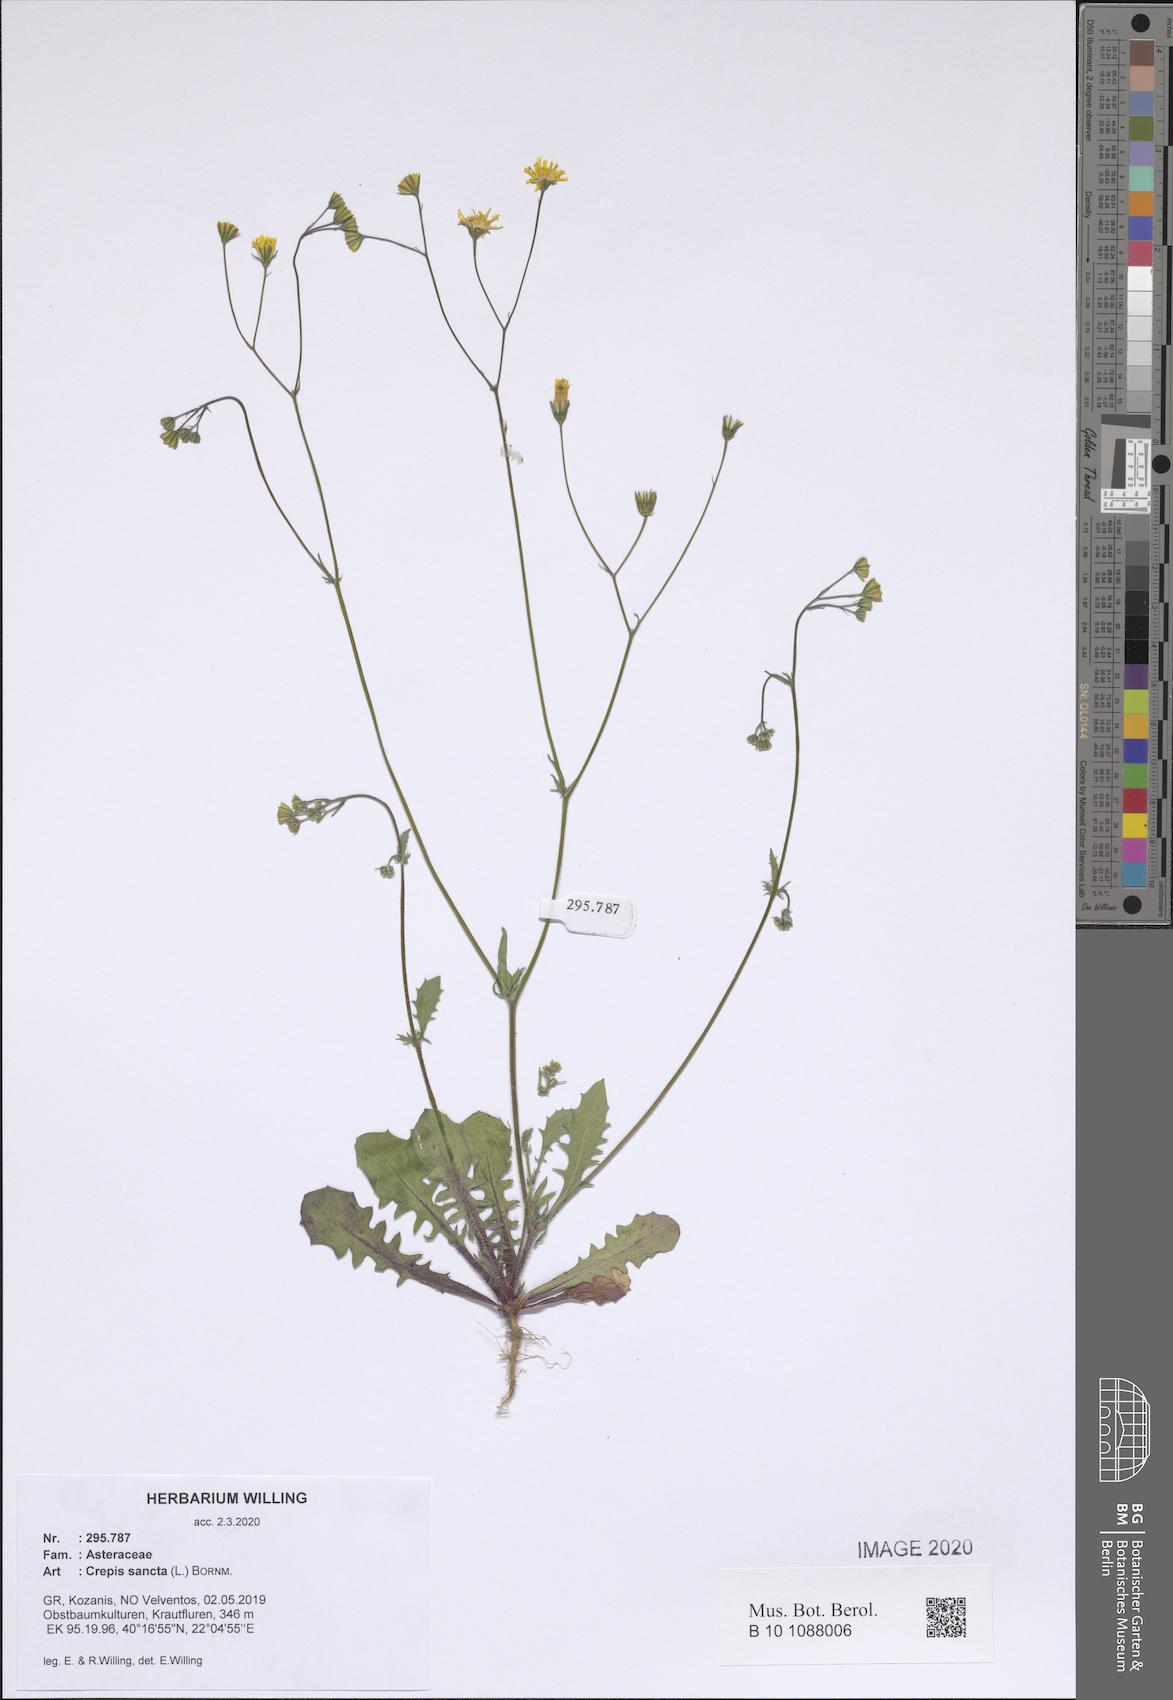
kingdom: Plantae
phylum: Tracheophyta
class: Magnoliopsida
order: Asterales
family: Asteraceae
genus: Crepis
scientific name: Crepis sancta
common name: Hawk's-beard
